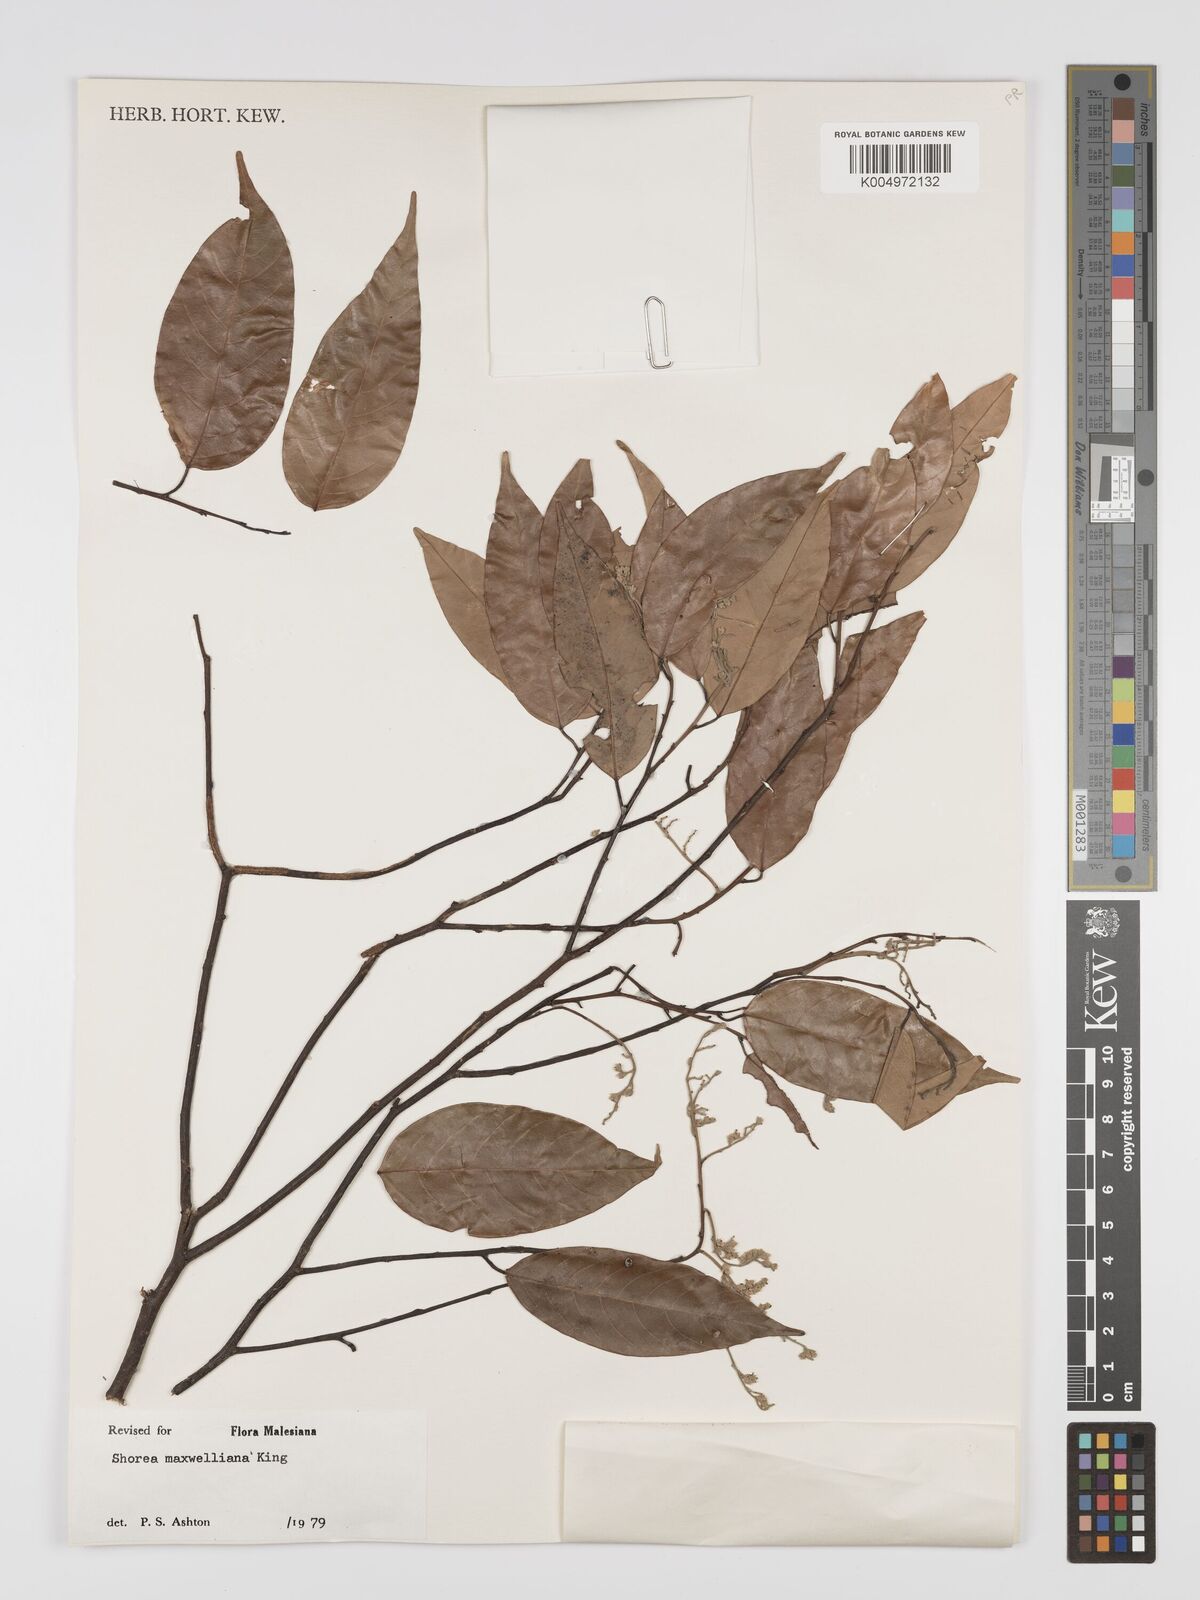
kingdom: Plantae
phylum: Tracheophyta
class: Magnoliopsida
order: Malvales
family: Dipterocarpaceae
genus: Shorea
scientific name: Shorea maxwelliana
